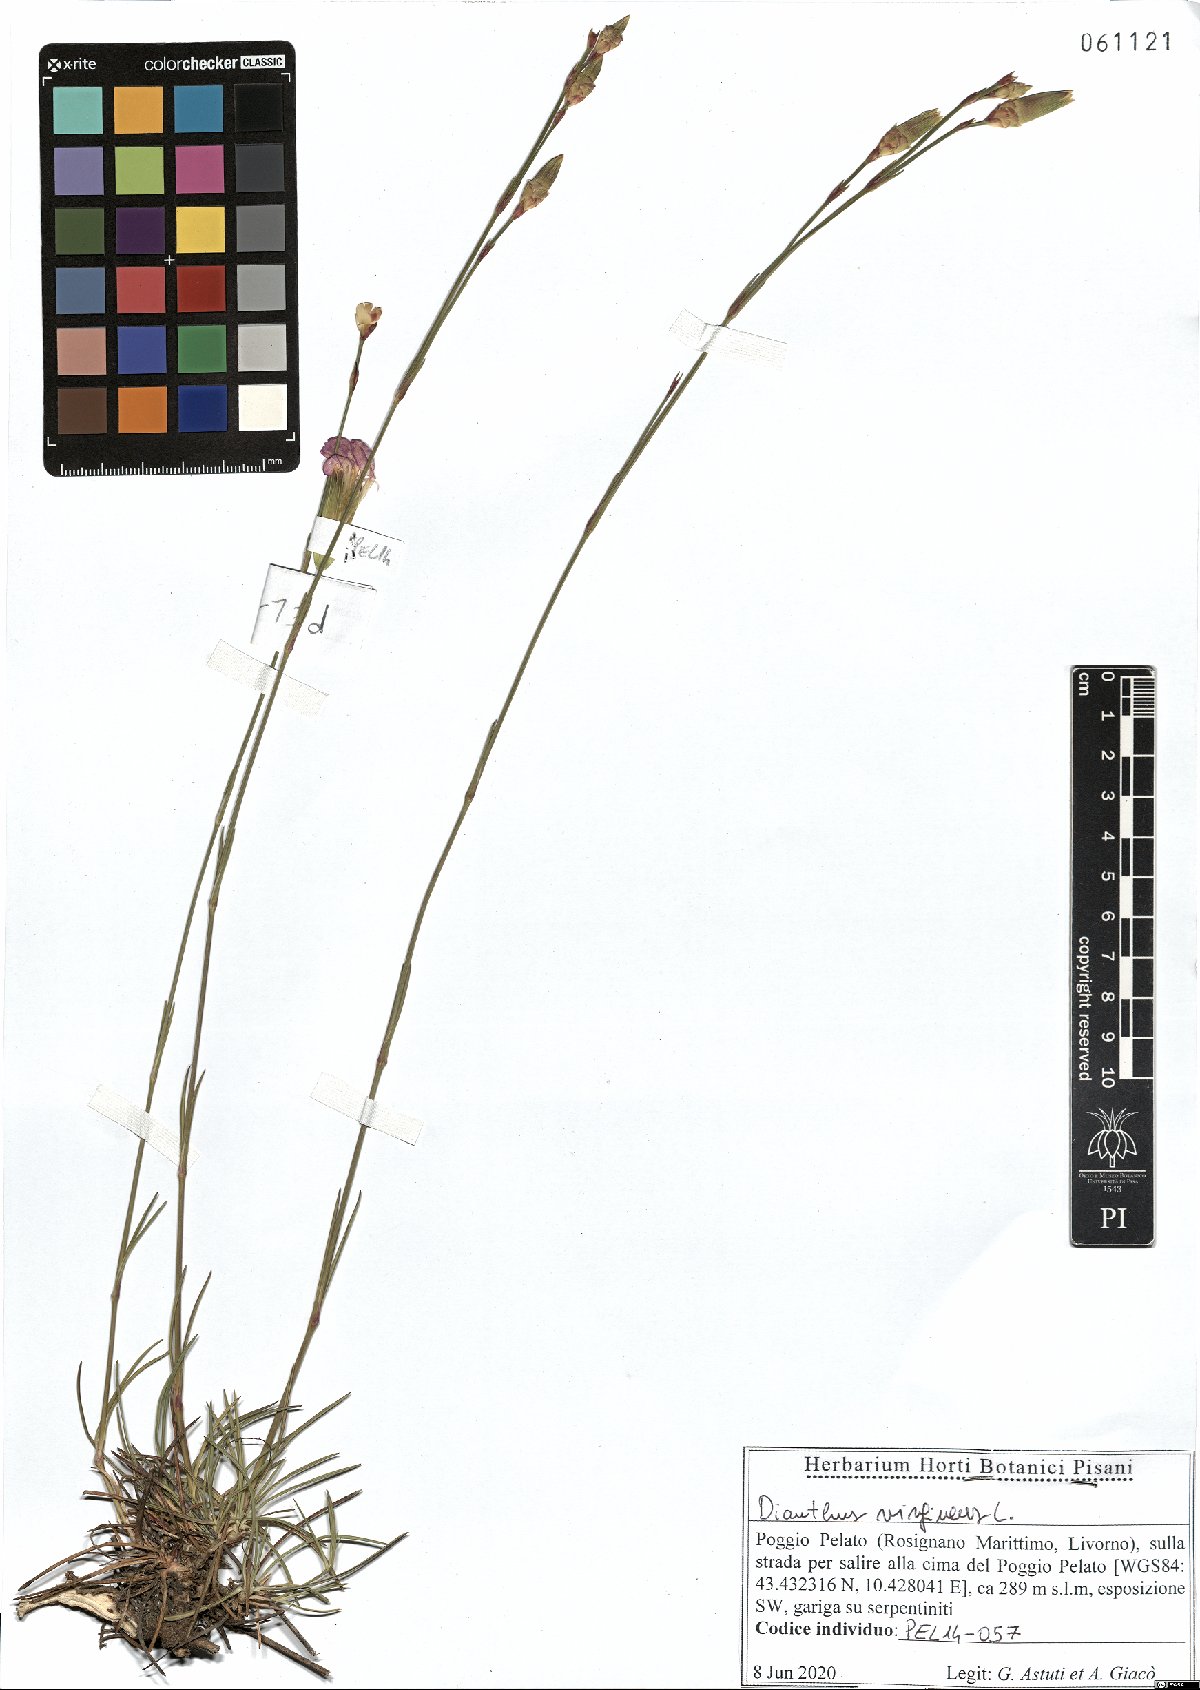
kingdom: Plantae
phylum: Tracheophyta
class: Magnoliopsida
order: Caryophyllales
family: Caryophyllaceae
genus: Dianthus
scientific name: Dianthus virgineus
